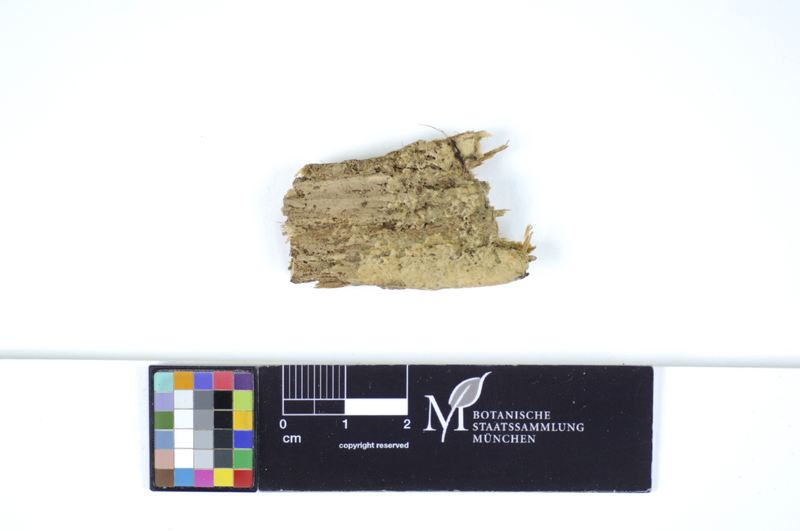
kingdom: Fungi
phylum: Basidiomycota
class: Agaricomycetes
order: Hymenochaetales
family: Hyphodontiaceae
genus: Hyphodontia
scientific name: Hyphodontia abieticola
